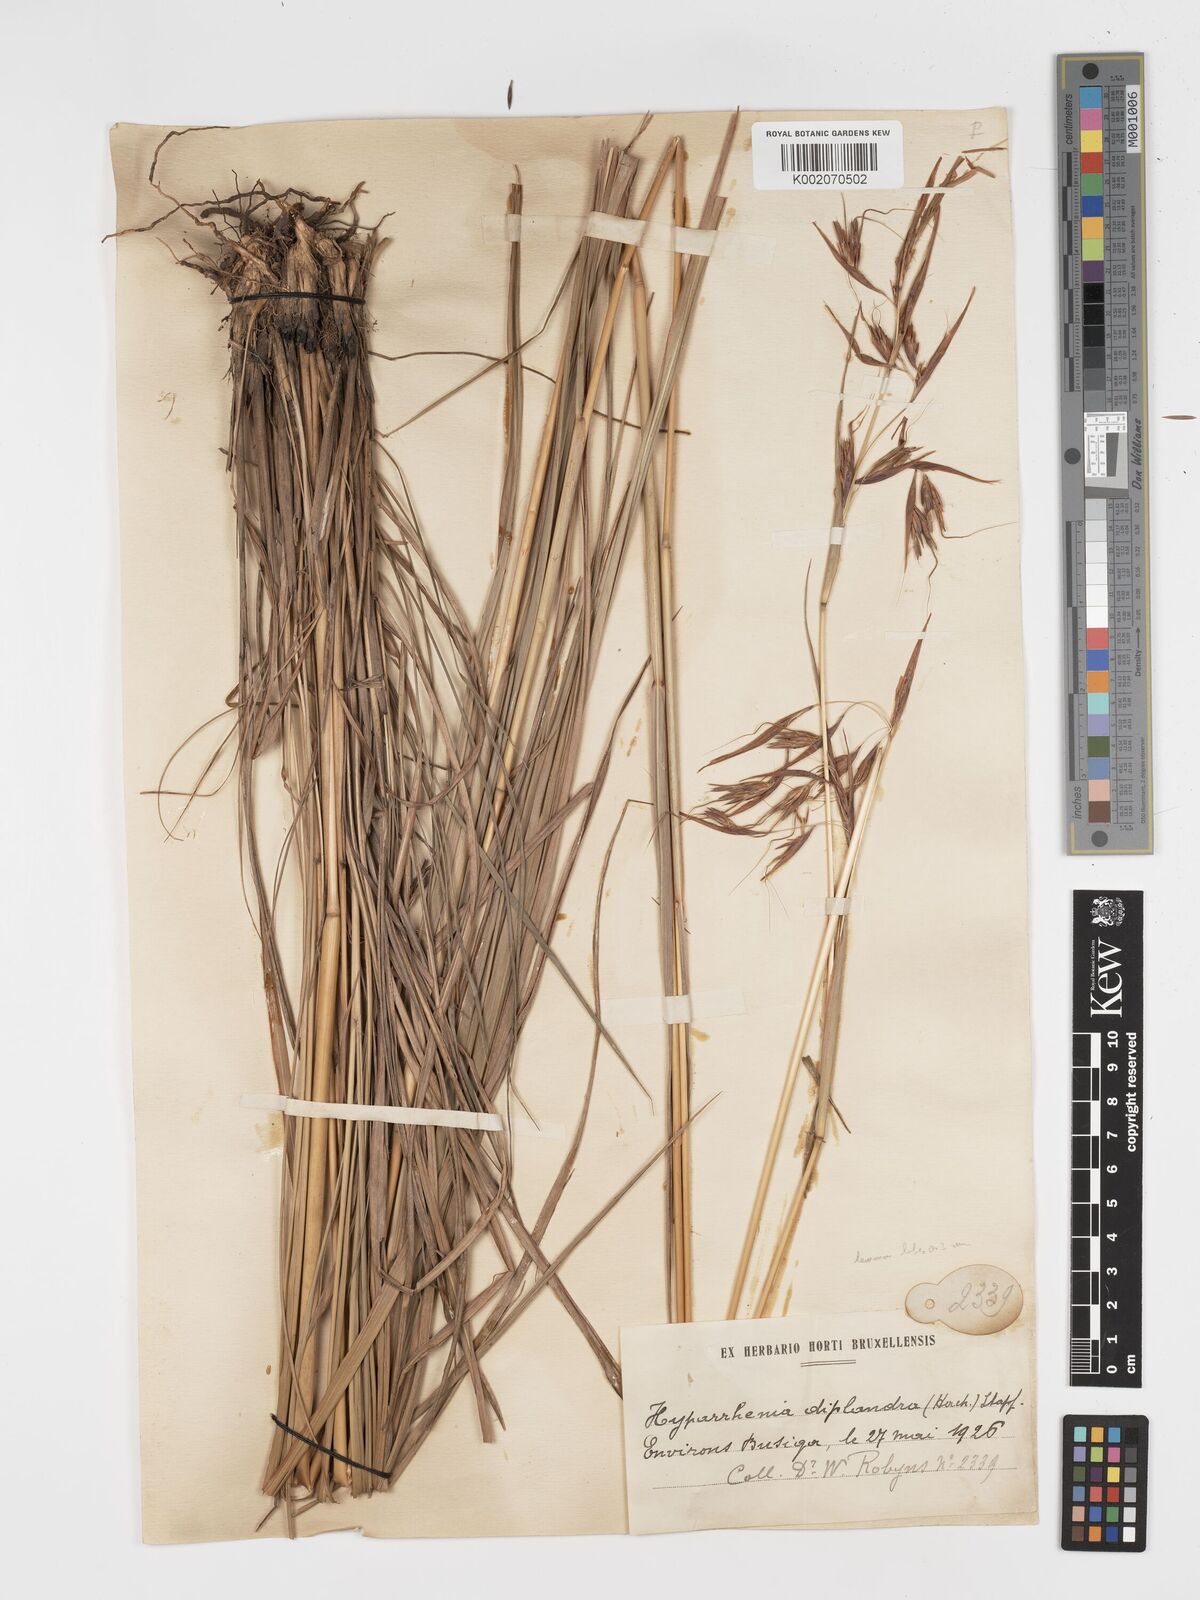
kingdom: Plantae
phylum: Tracheophyta
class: Liliopsida
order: Poales
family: Poaceae
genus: Hyparrhenia
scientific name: Hyparrhenia diplandra
